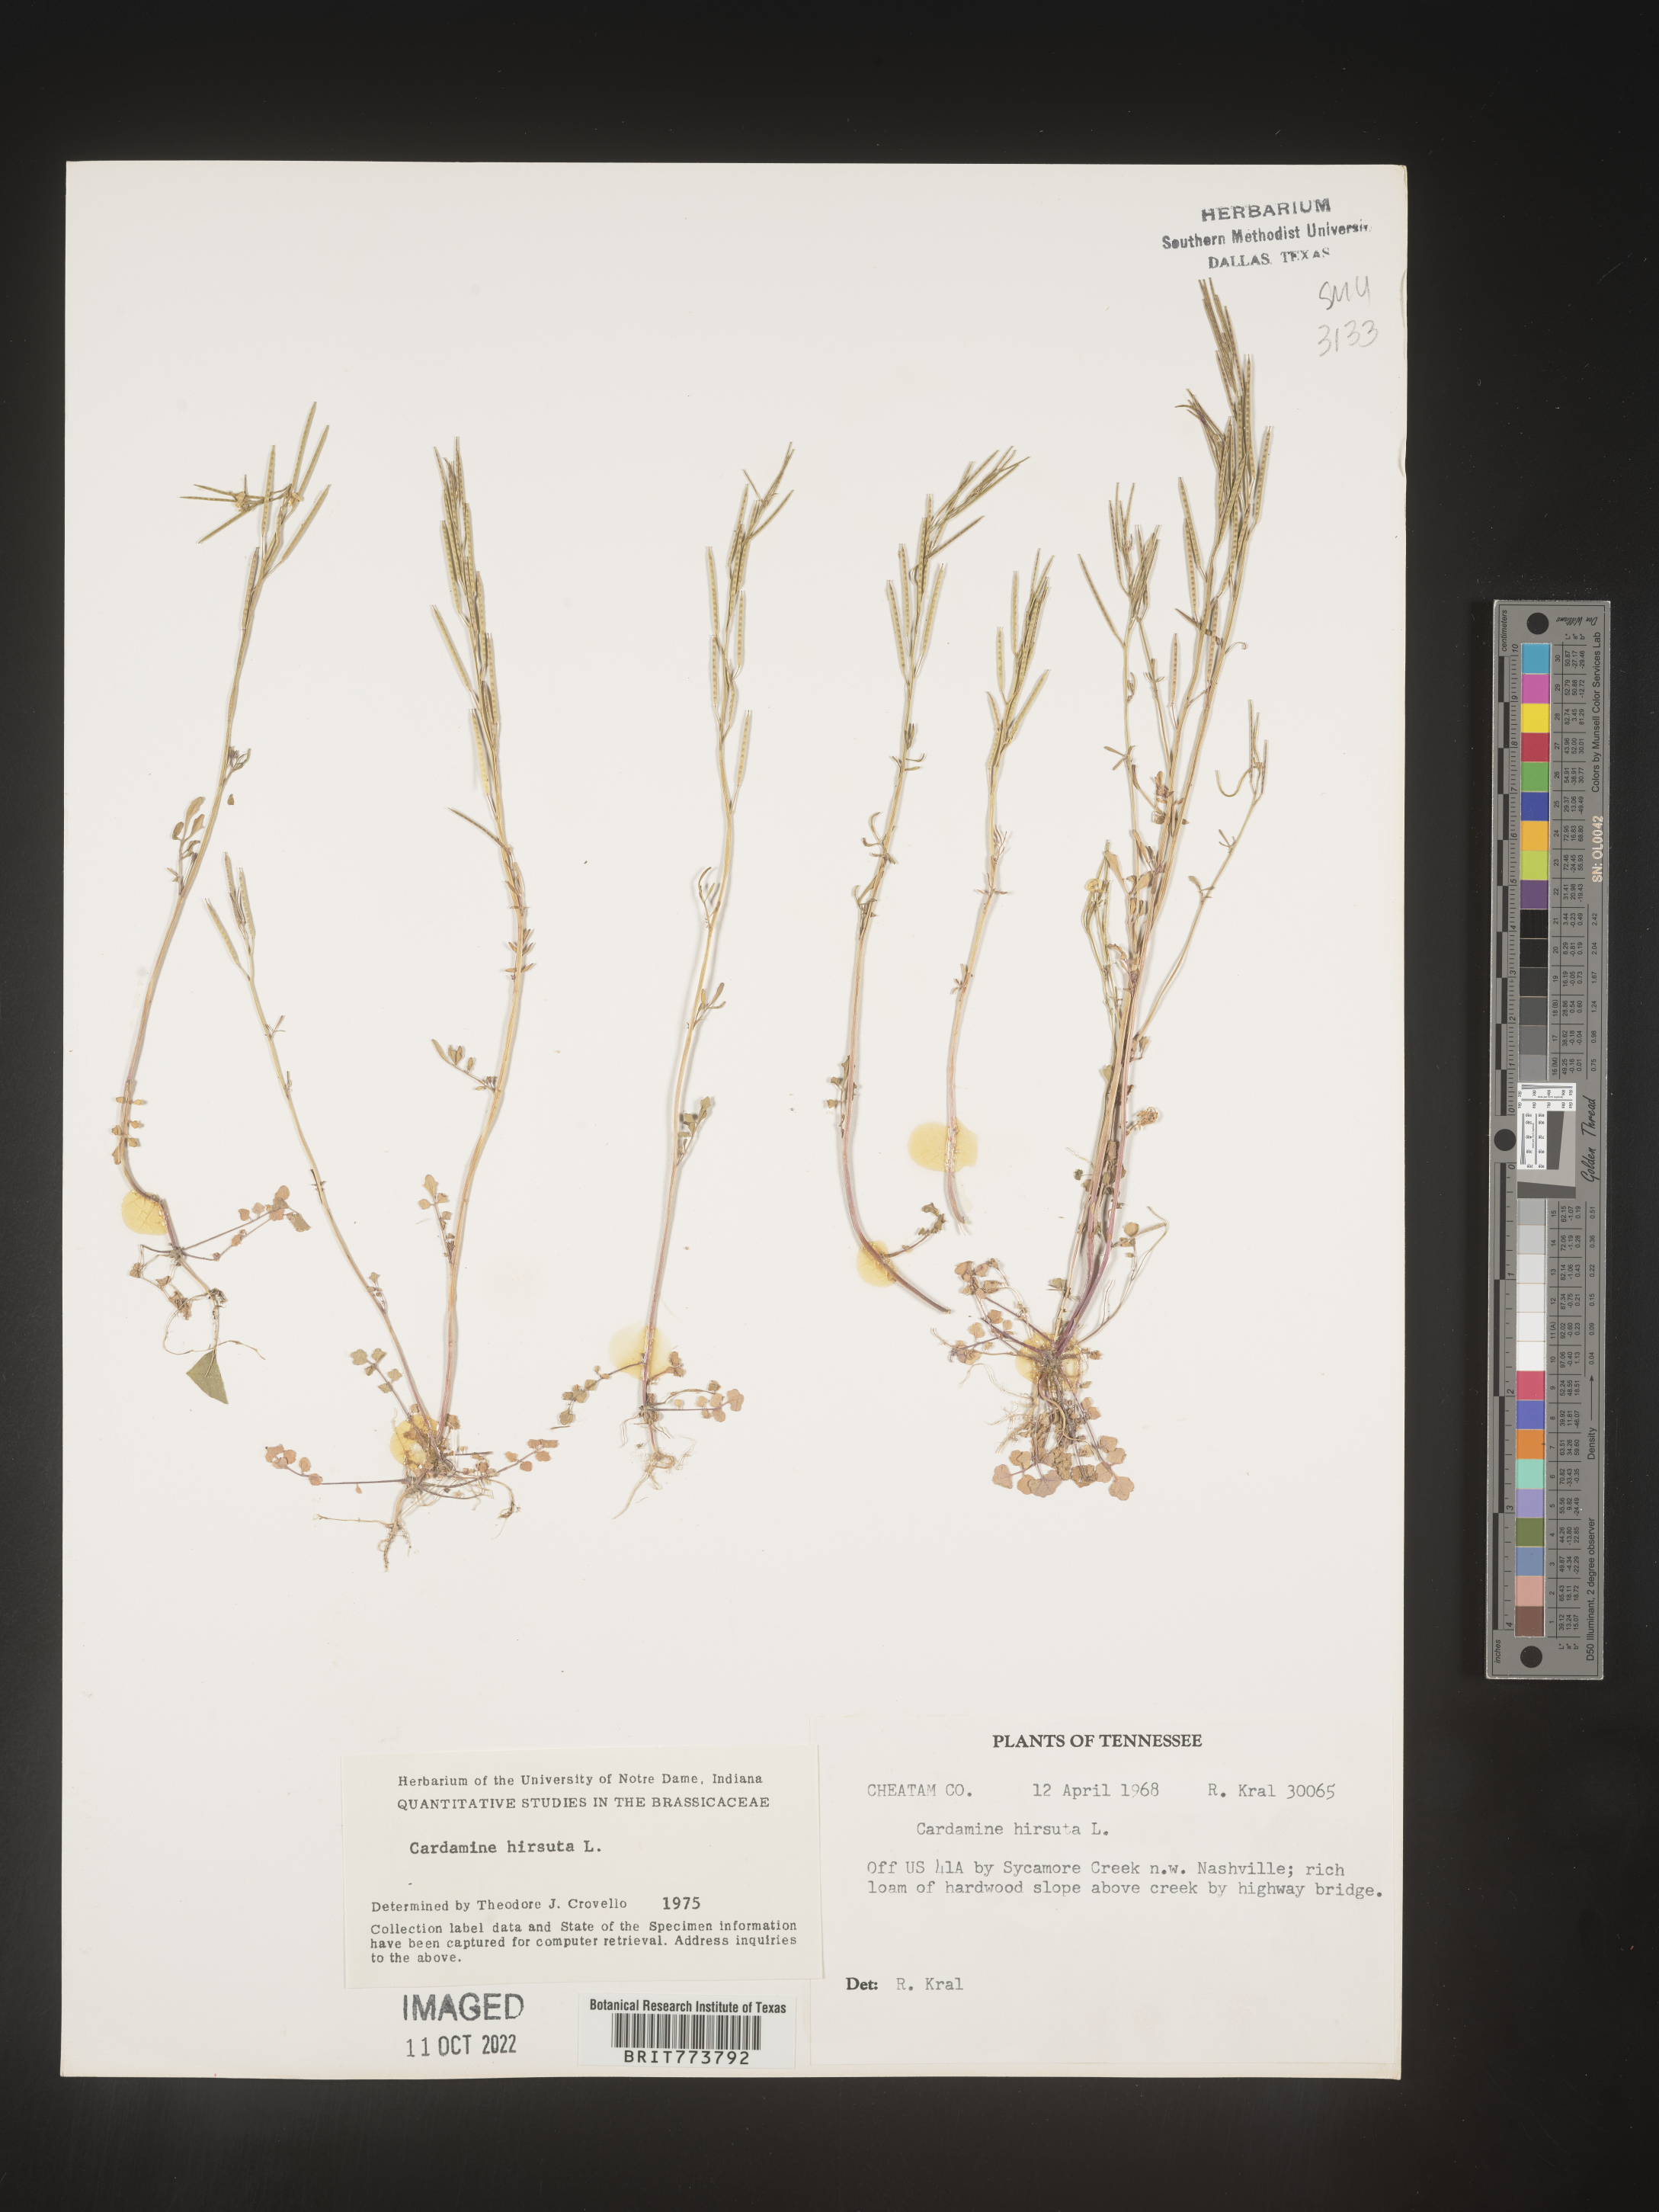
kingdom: Plantae
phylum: Tracheophyta
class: Magnoliopsida
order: Brassicales
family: Brassicaceae
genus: Cardamine
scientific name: Cardamine hirsuta
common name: Hairy bittercress
